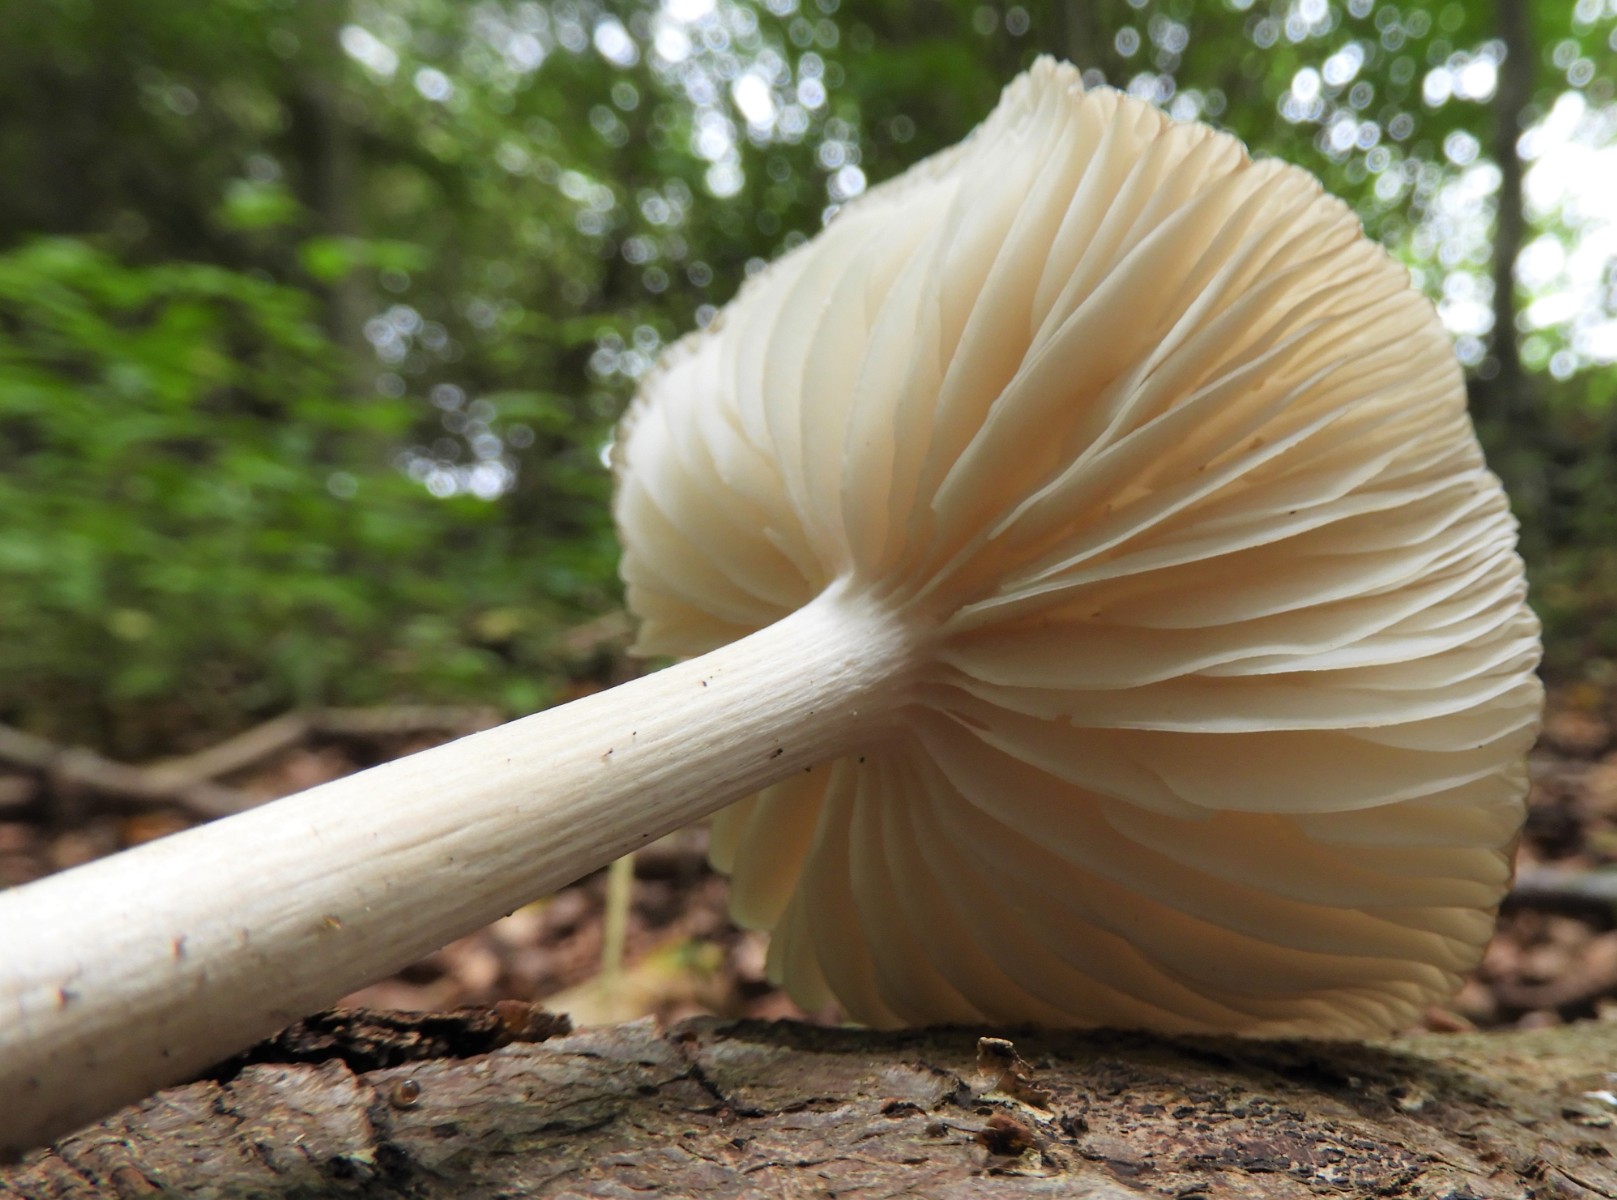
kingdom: Fungi
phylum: Basidiomycota
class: Agaricomycetes
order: Agaricales
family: Physalacriaceae
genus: Hymenopellis
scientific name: Hymenopellis radicata
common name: almindelig pælerodshat
